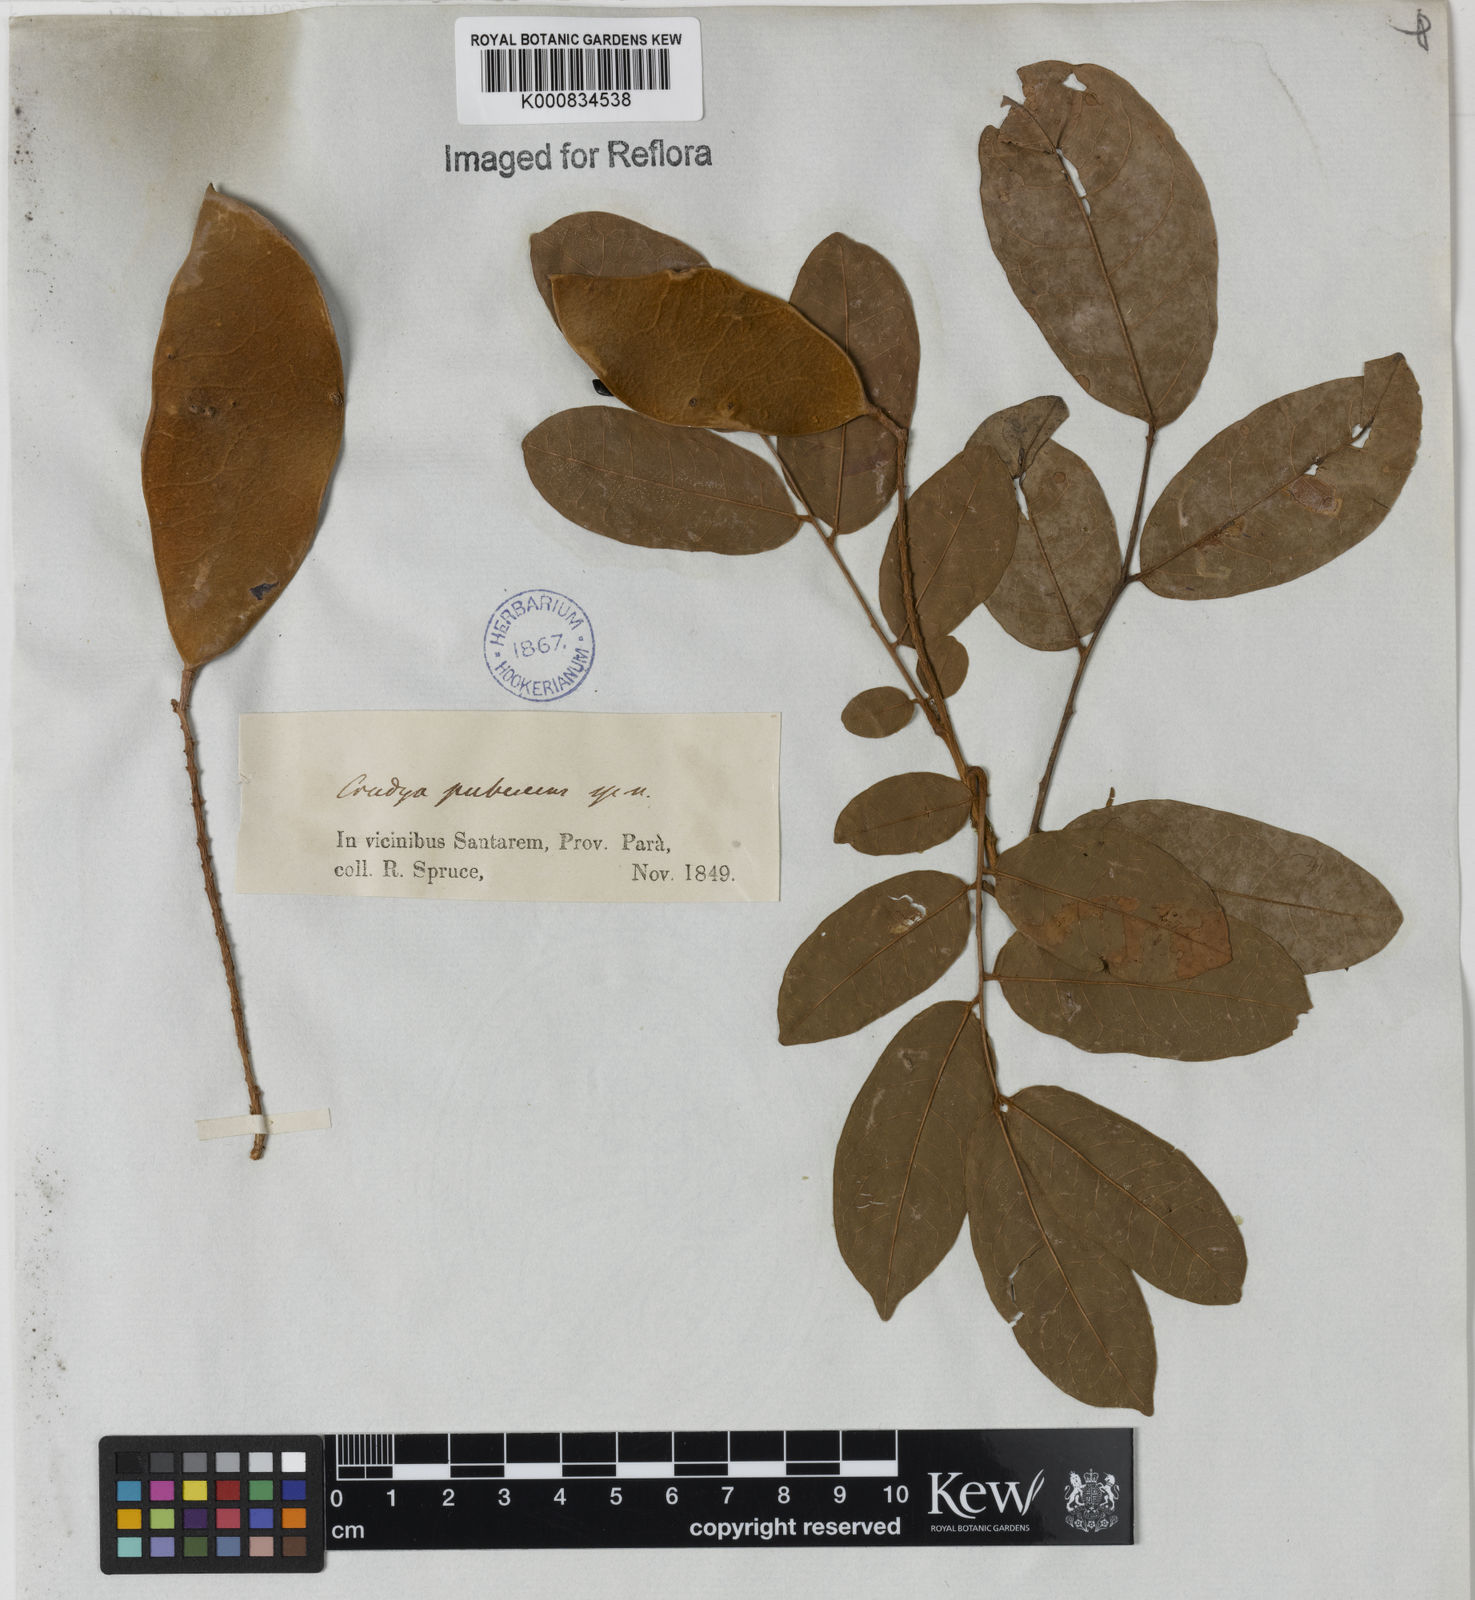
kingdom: Plantae
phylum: Tracheophyta
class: Magnoliopsida
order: Fabales
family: Fabaceae
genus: Crudia
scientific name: Crudia glaberrima
